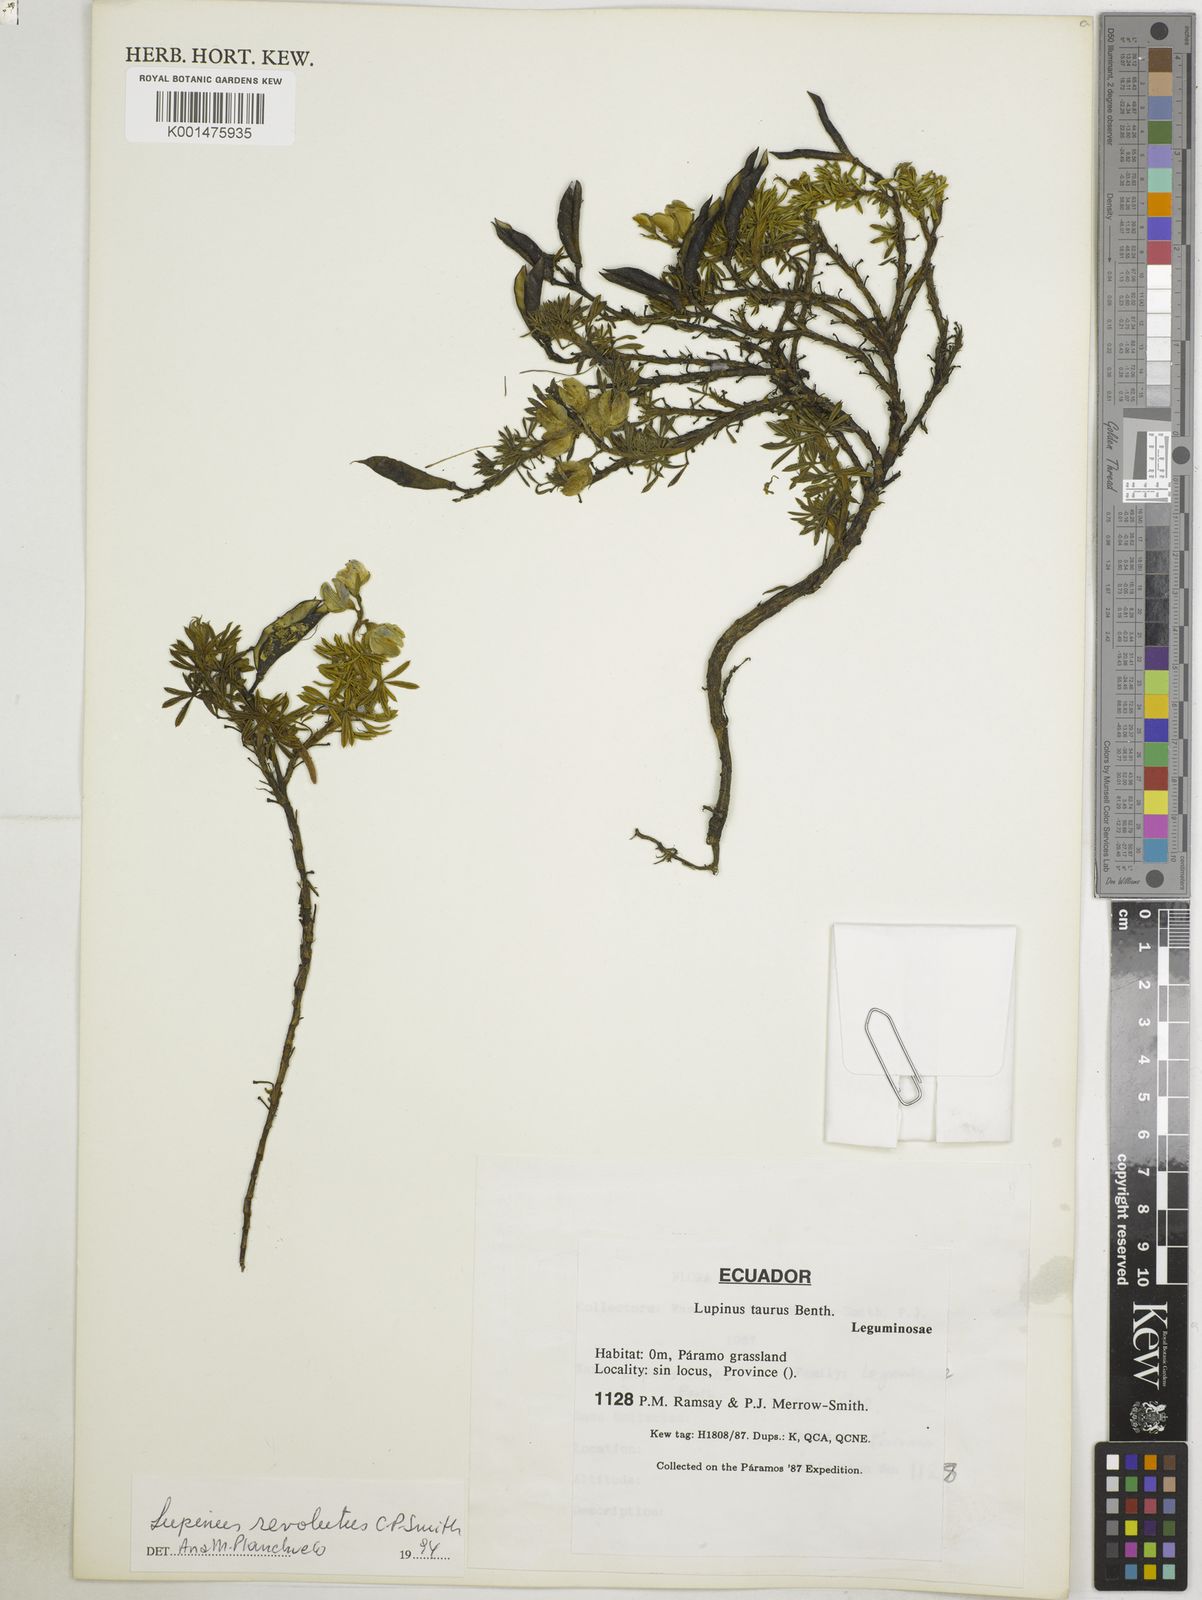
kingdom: Plantae
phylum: Tracheophyta
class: Magnoliopsida
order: Fabales
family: Fabaceae
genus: Lupinus
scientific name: Lupinus revolutus
